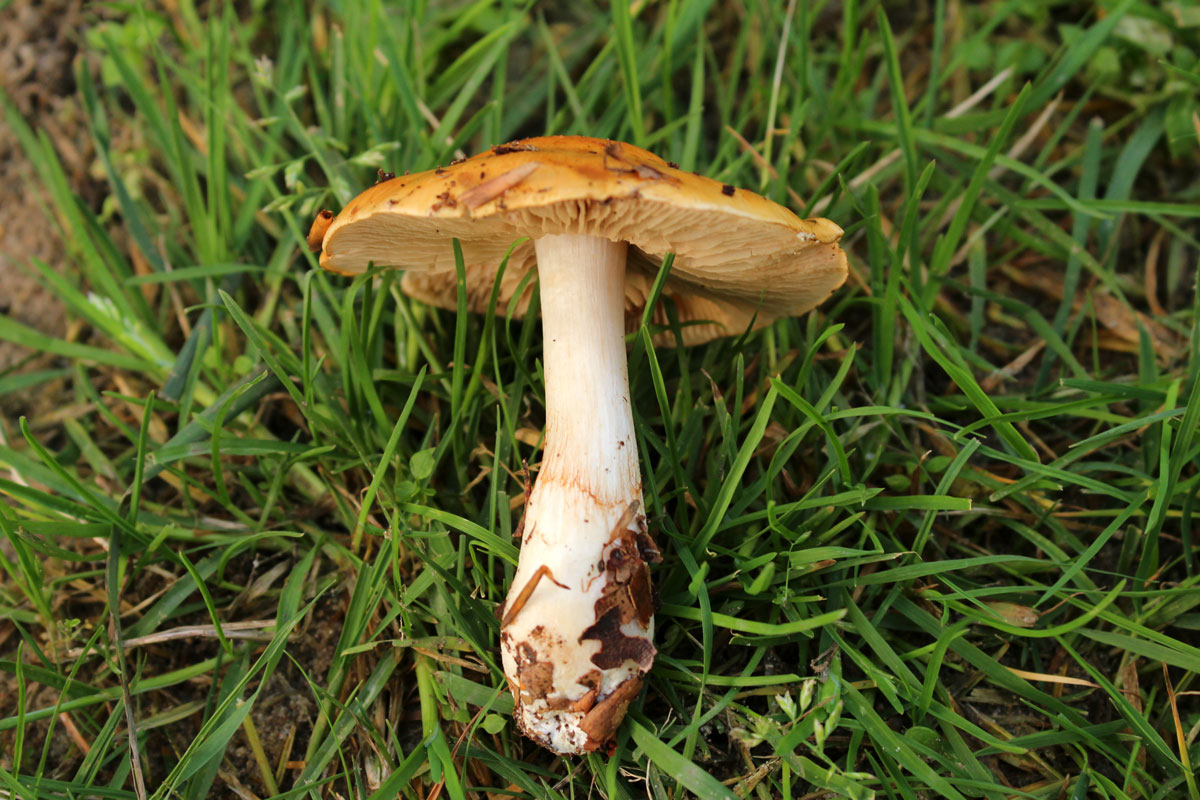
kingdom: Fungi
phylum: Basidiomycota
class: Agaricomycetes
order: Agaricales
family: Cortinariaceae
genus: Thaxterogaster
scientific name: Thaxterogaster emollitus
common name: besk slørhat
